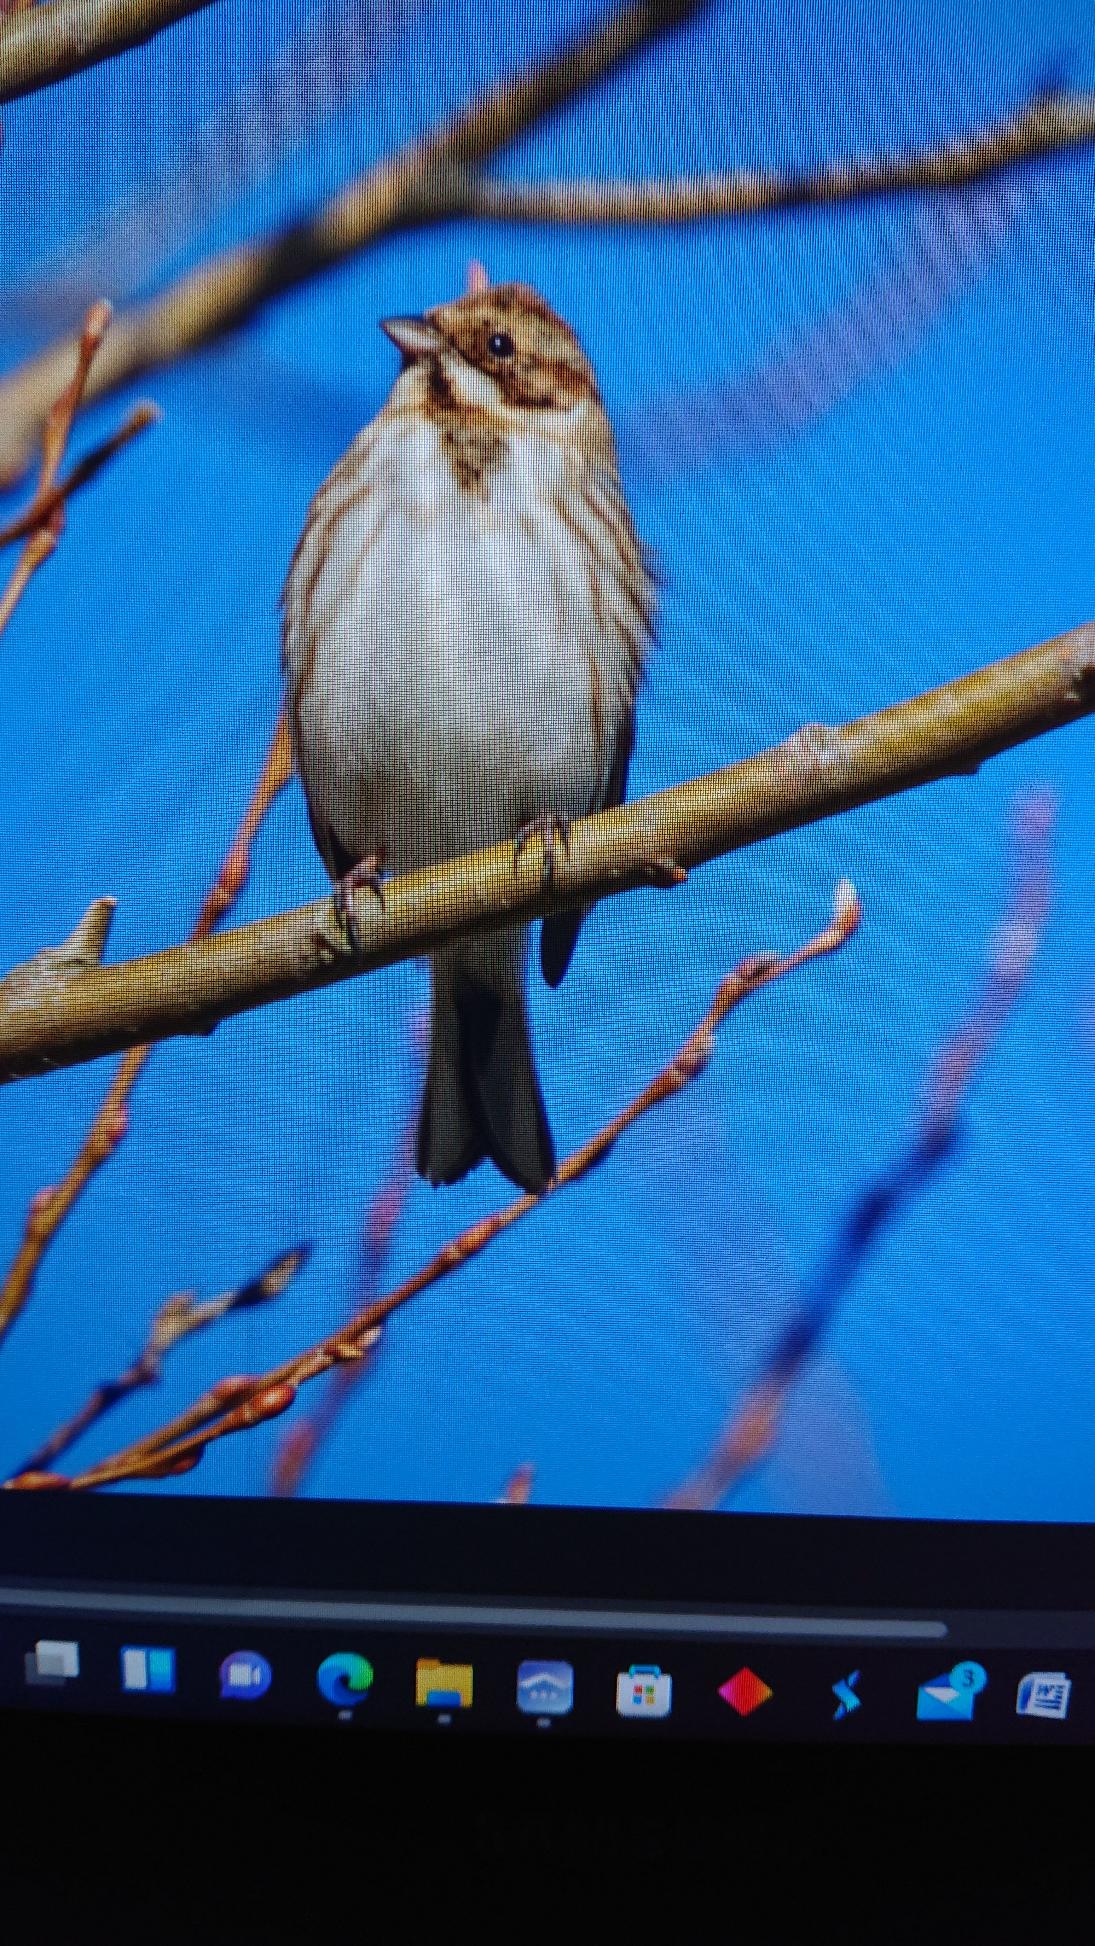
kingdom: Animalia
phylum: Chordata
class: Aves
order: Passeriformes
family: Emberizidae
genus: Emberiza
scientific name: Emberiza schoeniclus
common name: Rørspurv
